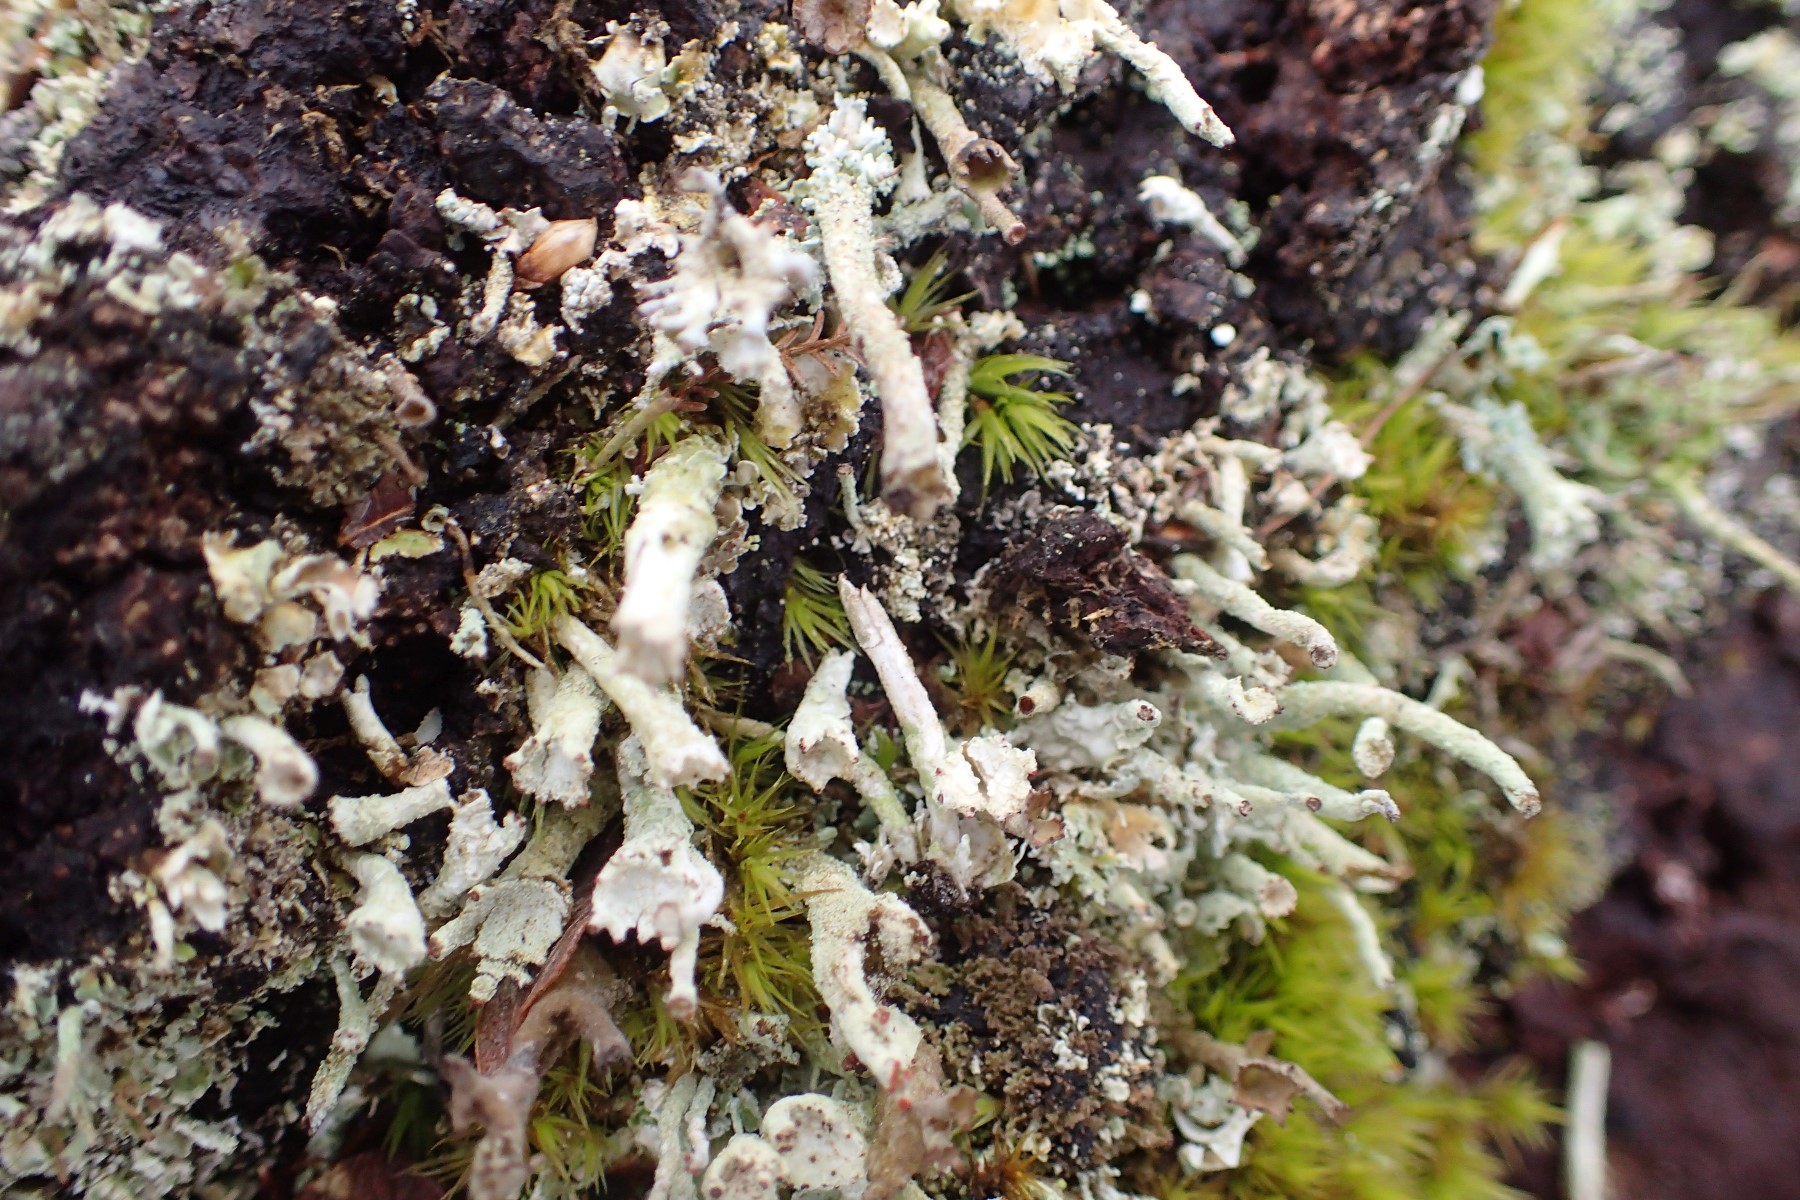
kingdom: Fungi
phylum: Ascomycota
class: Lecanoromycetes
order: Lecanorales
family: Cladoniaceae
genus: Cladonia
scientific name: Cladonia
